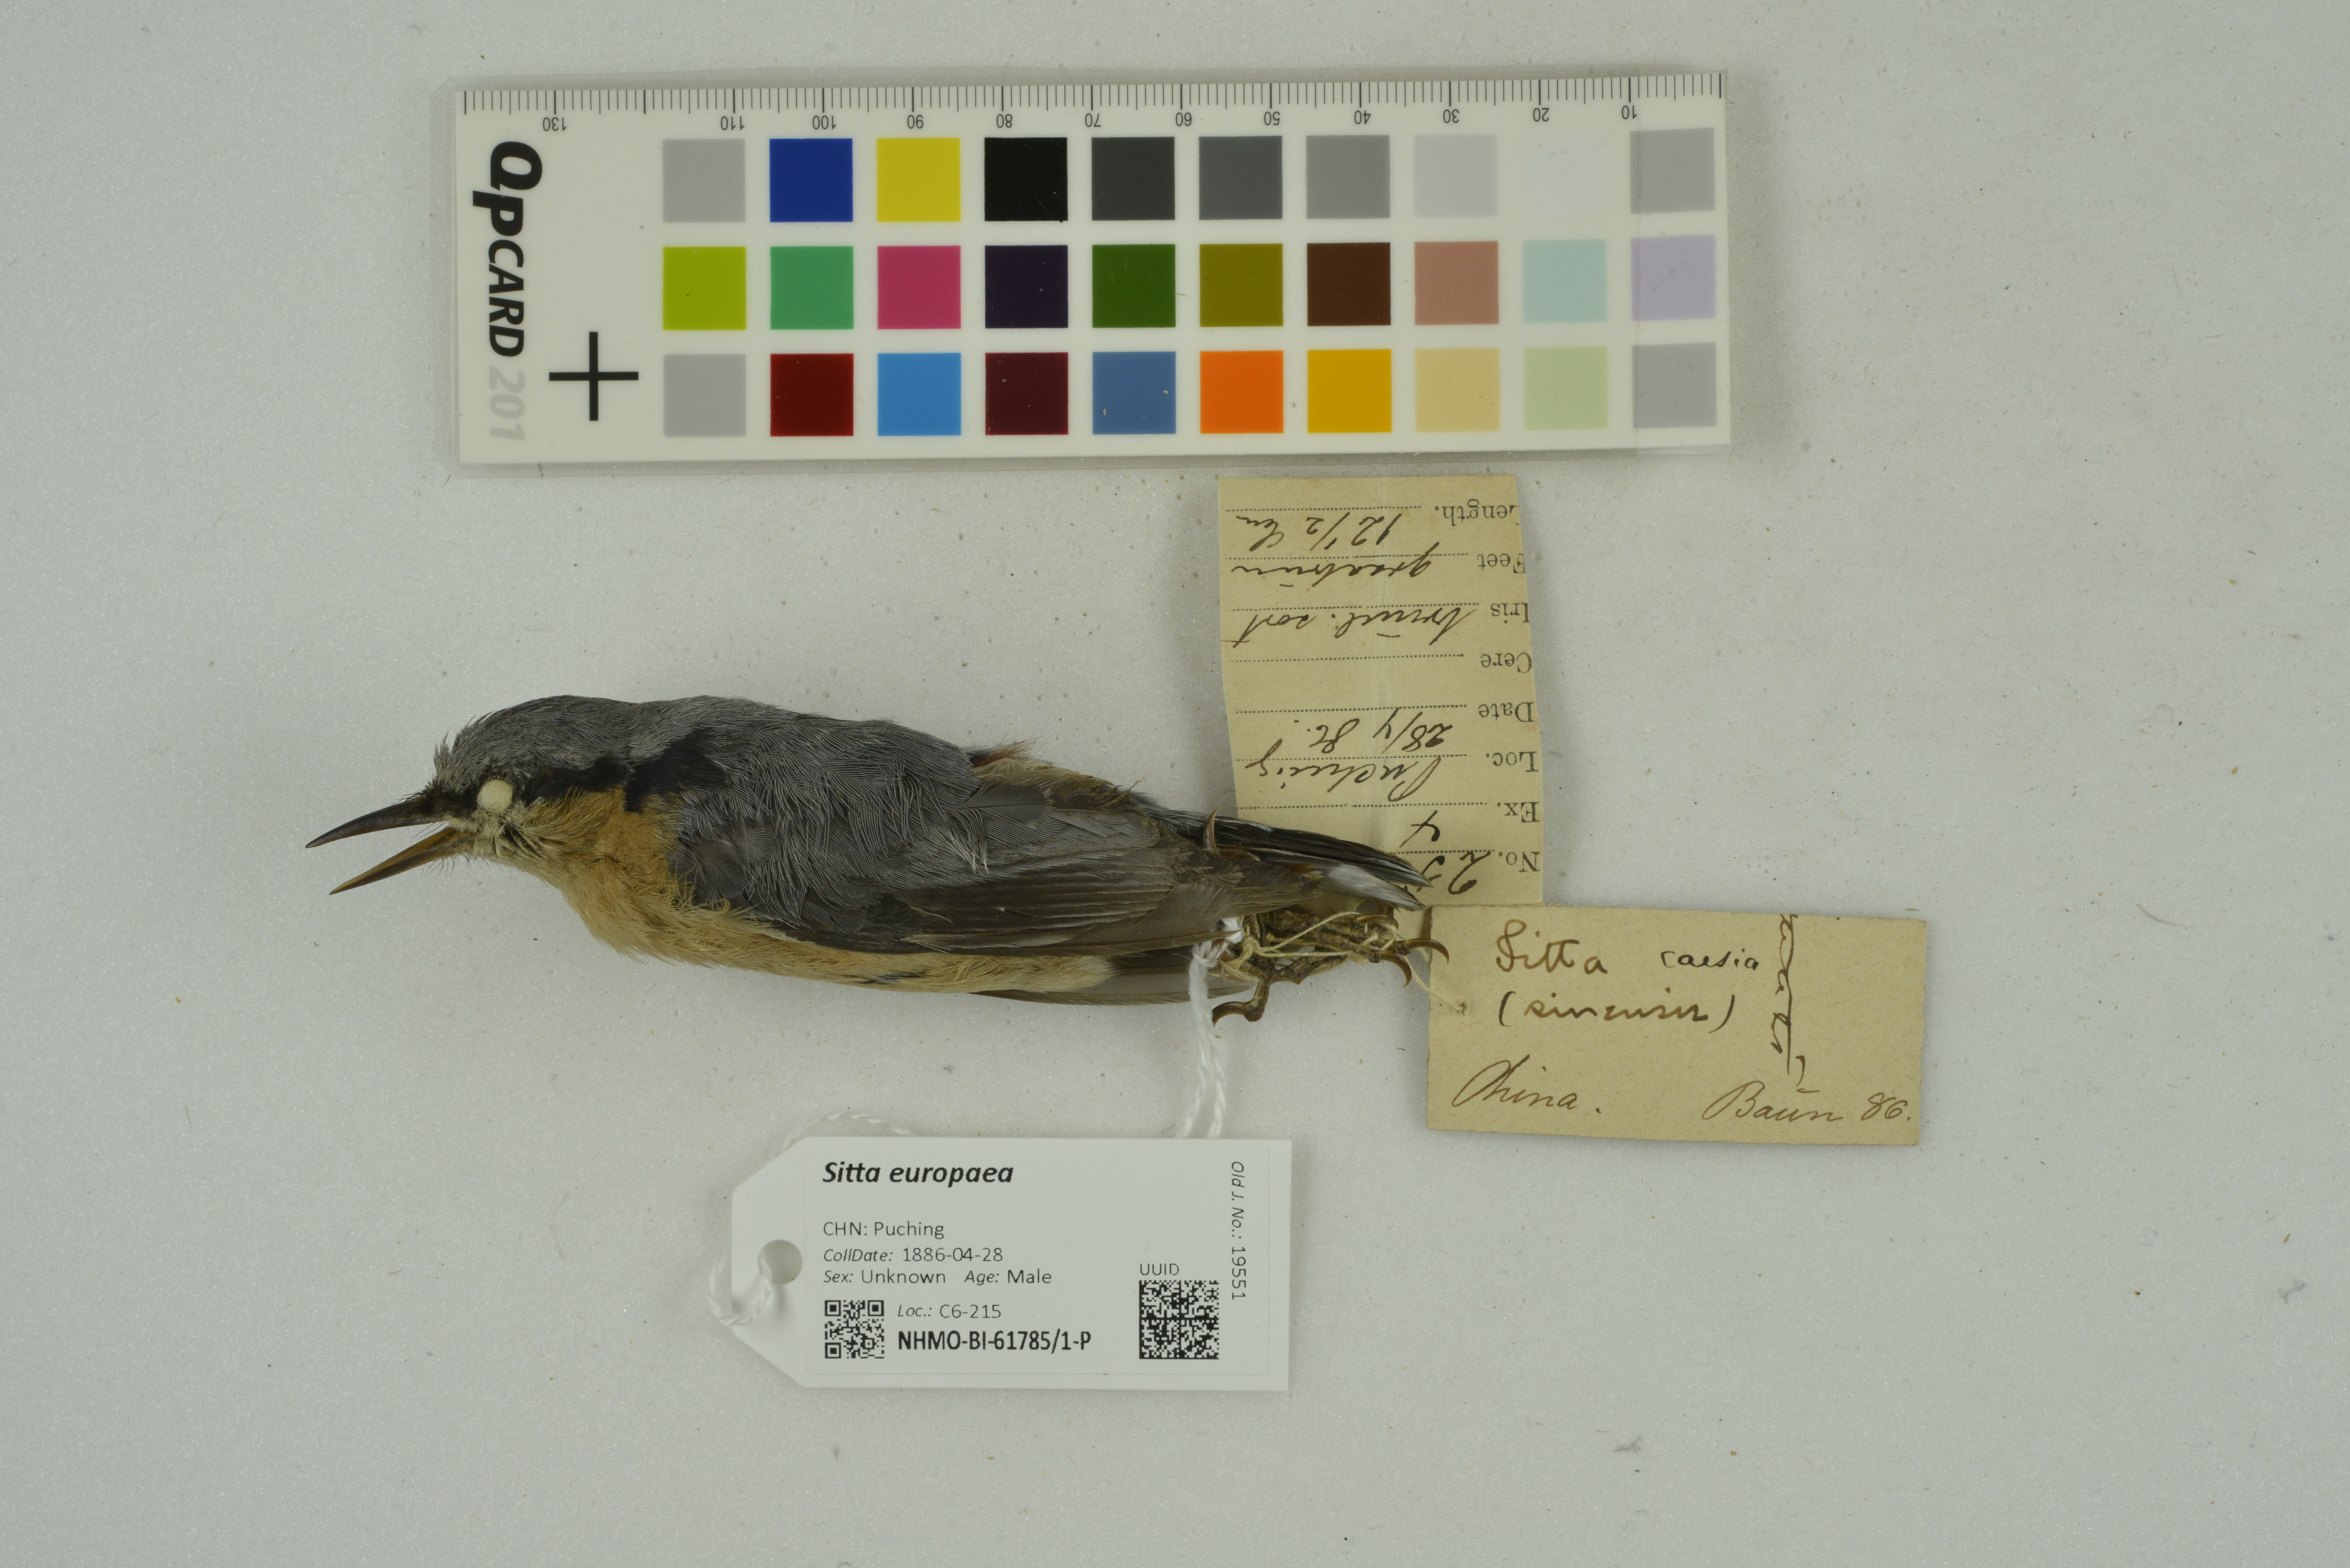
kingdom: Animalia
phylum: Chordata
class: Aves
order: Passeriformes
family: Sittidae
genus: Sitta
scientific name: Sitta europaea
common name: Eurasian nuthatch
